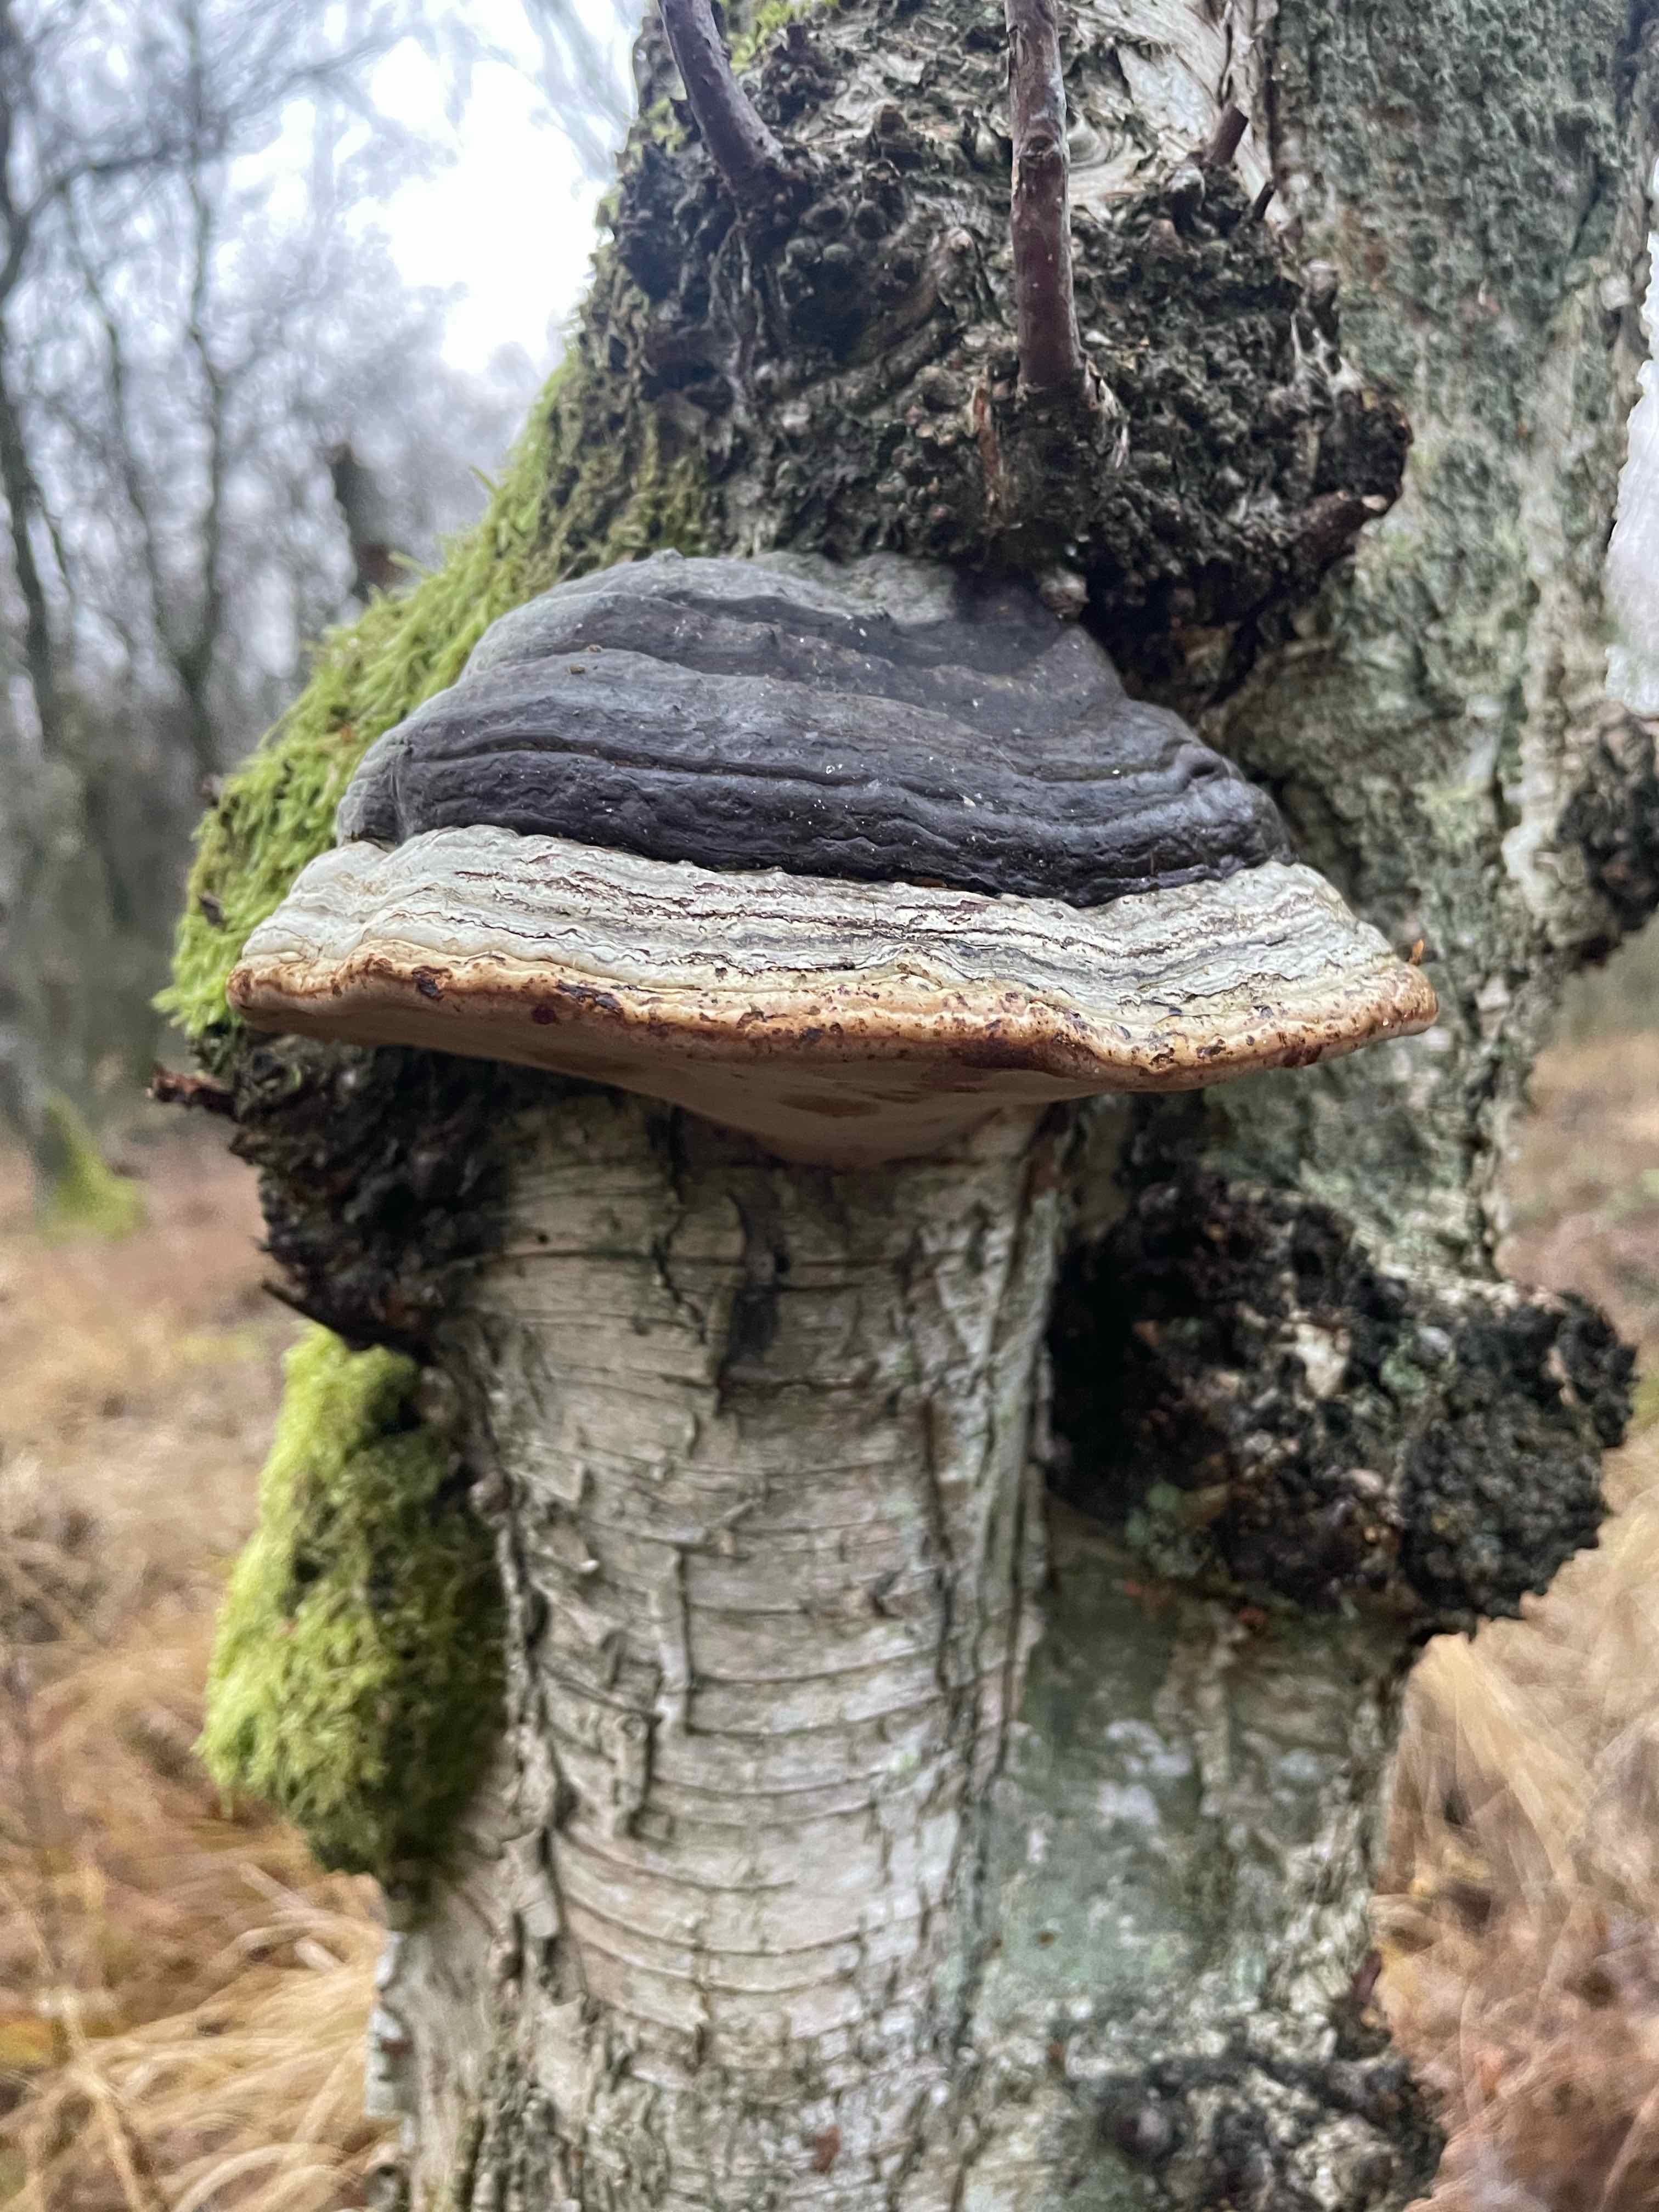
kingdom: Fungi
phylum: Basidiomycota
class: Agaricomycetes
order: Polyporales
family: Polyporaceae
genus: Fomes
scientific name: Fomes fomentarius
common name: tøndersvamp
